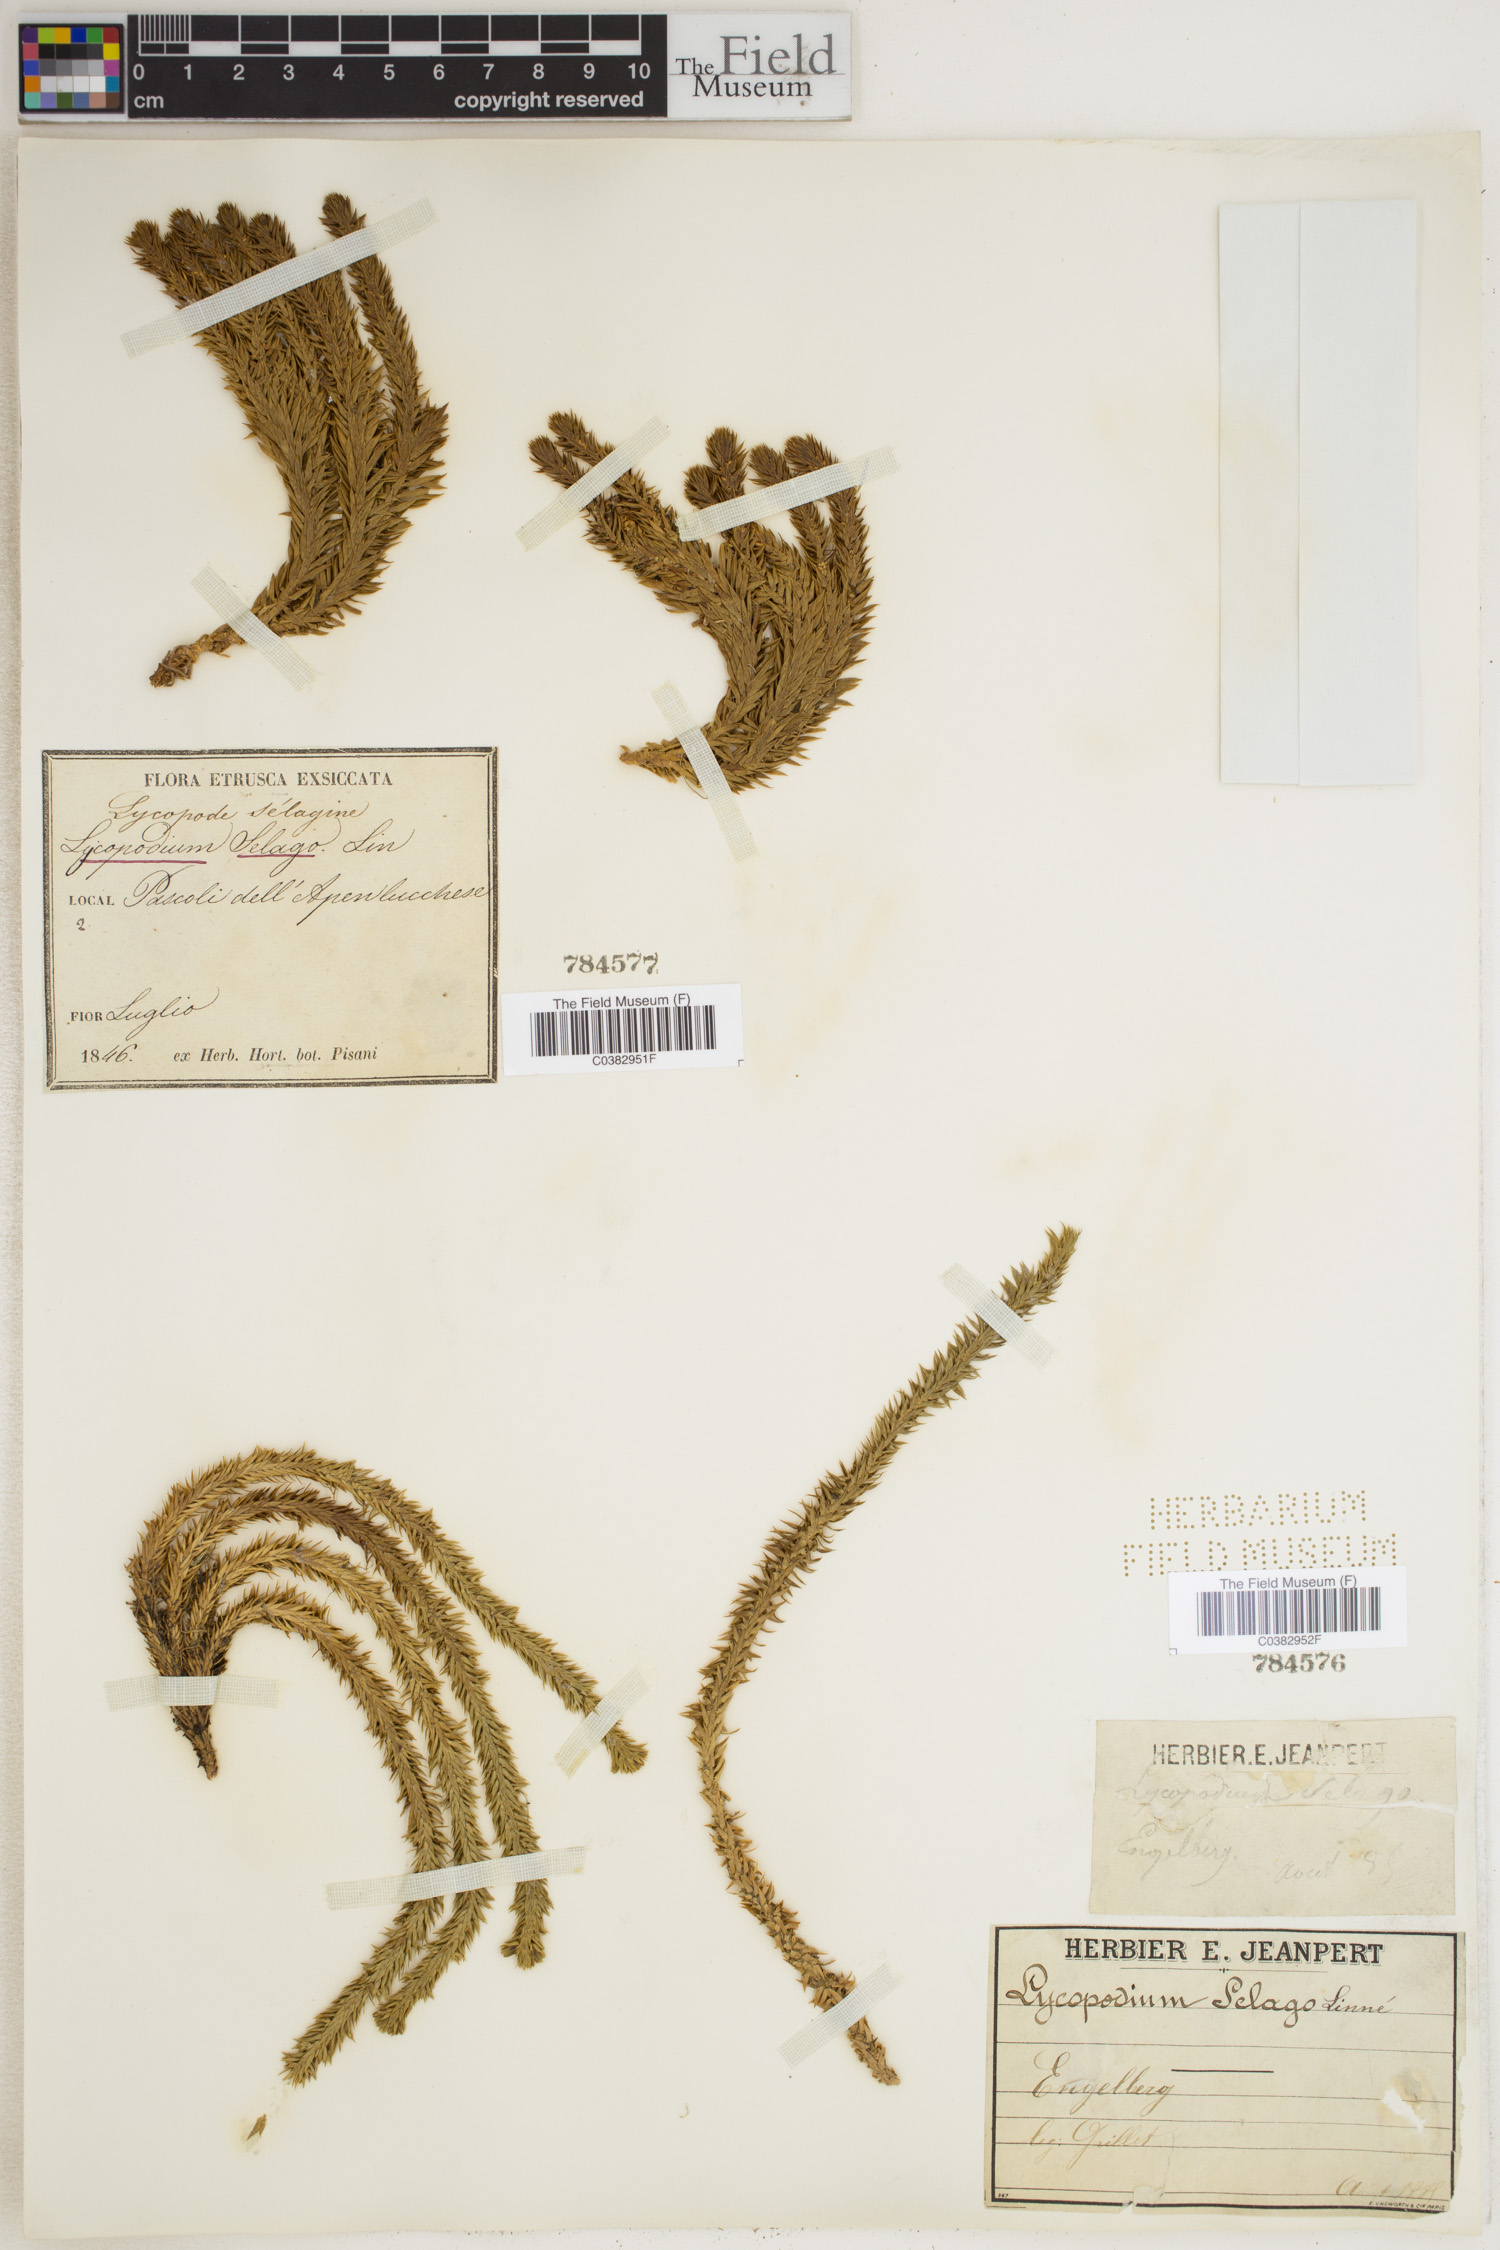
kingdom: Plantae
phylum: Tracheophyta
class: Lycopodiopsida
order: Lycopodiales
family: Lycopodiaceae
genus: Huperzia
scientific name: Huperzia selago
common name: Northern firmoss
